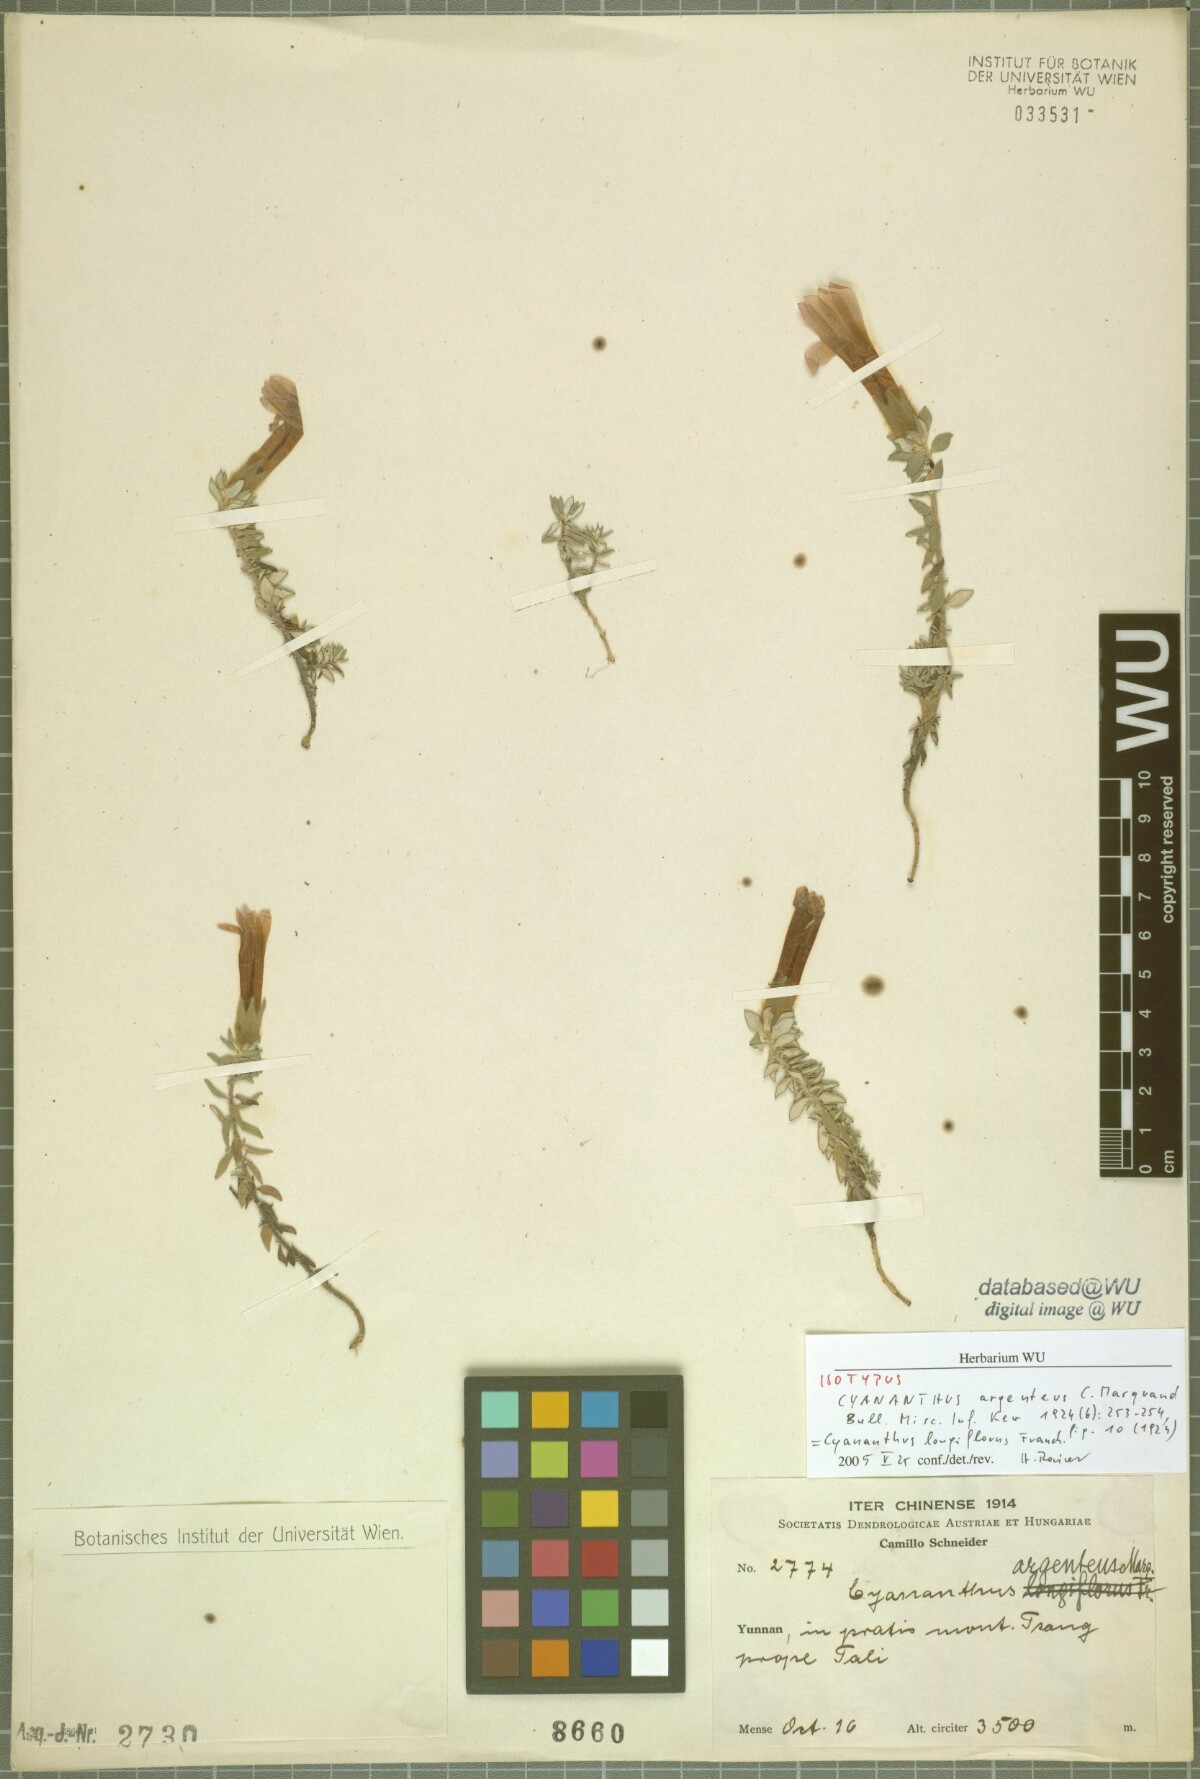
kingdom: Plantae
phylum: Tracheophyta
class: Magnoliopsida
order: Asterales
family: Campanulaceae
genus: Cyananthus
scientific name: Cyananthus longiflorus
